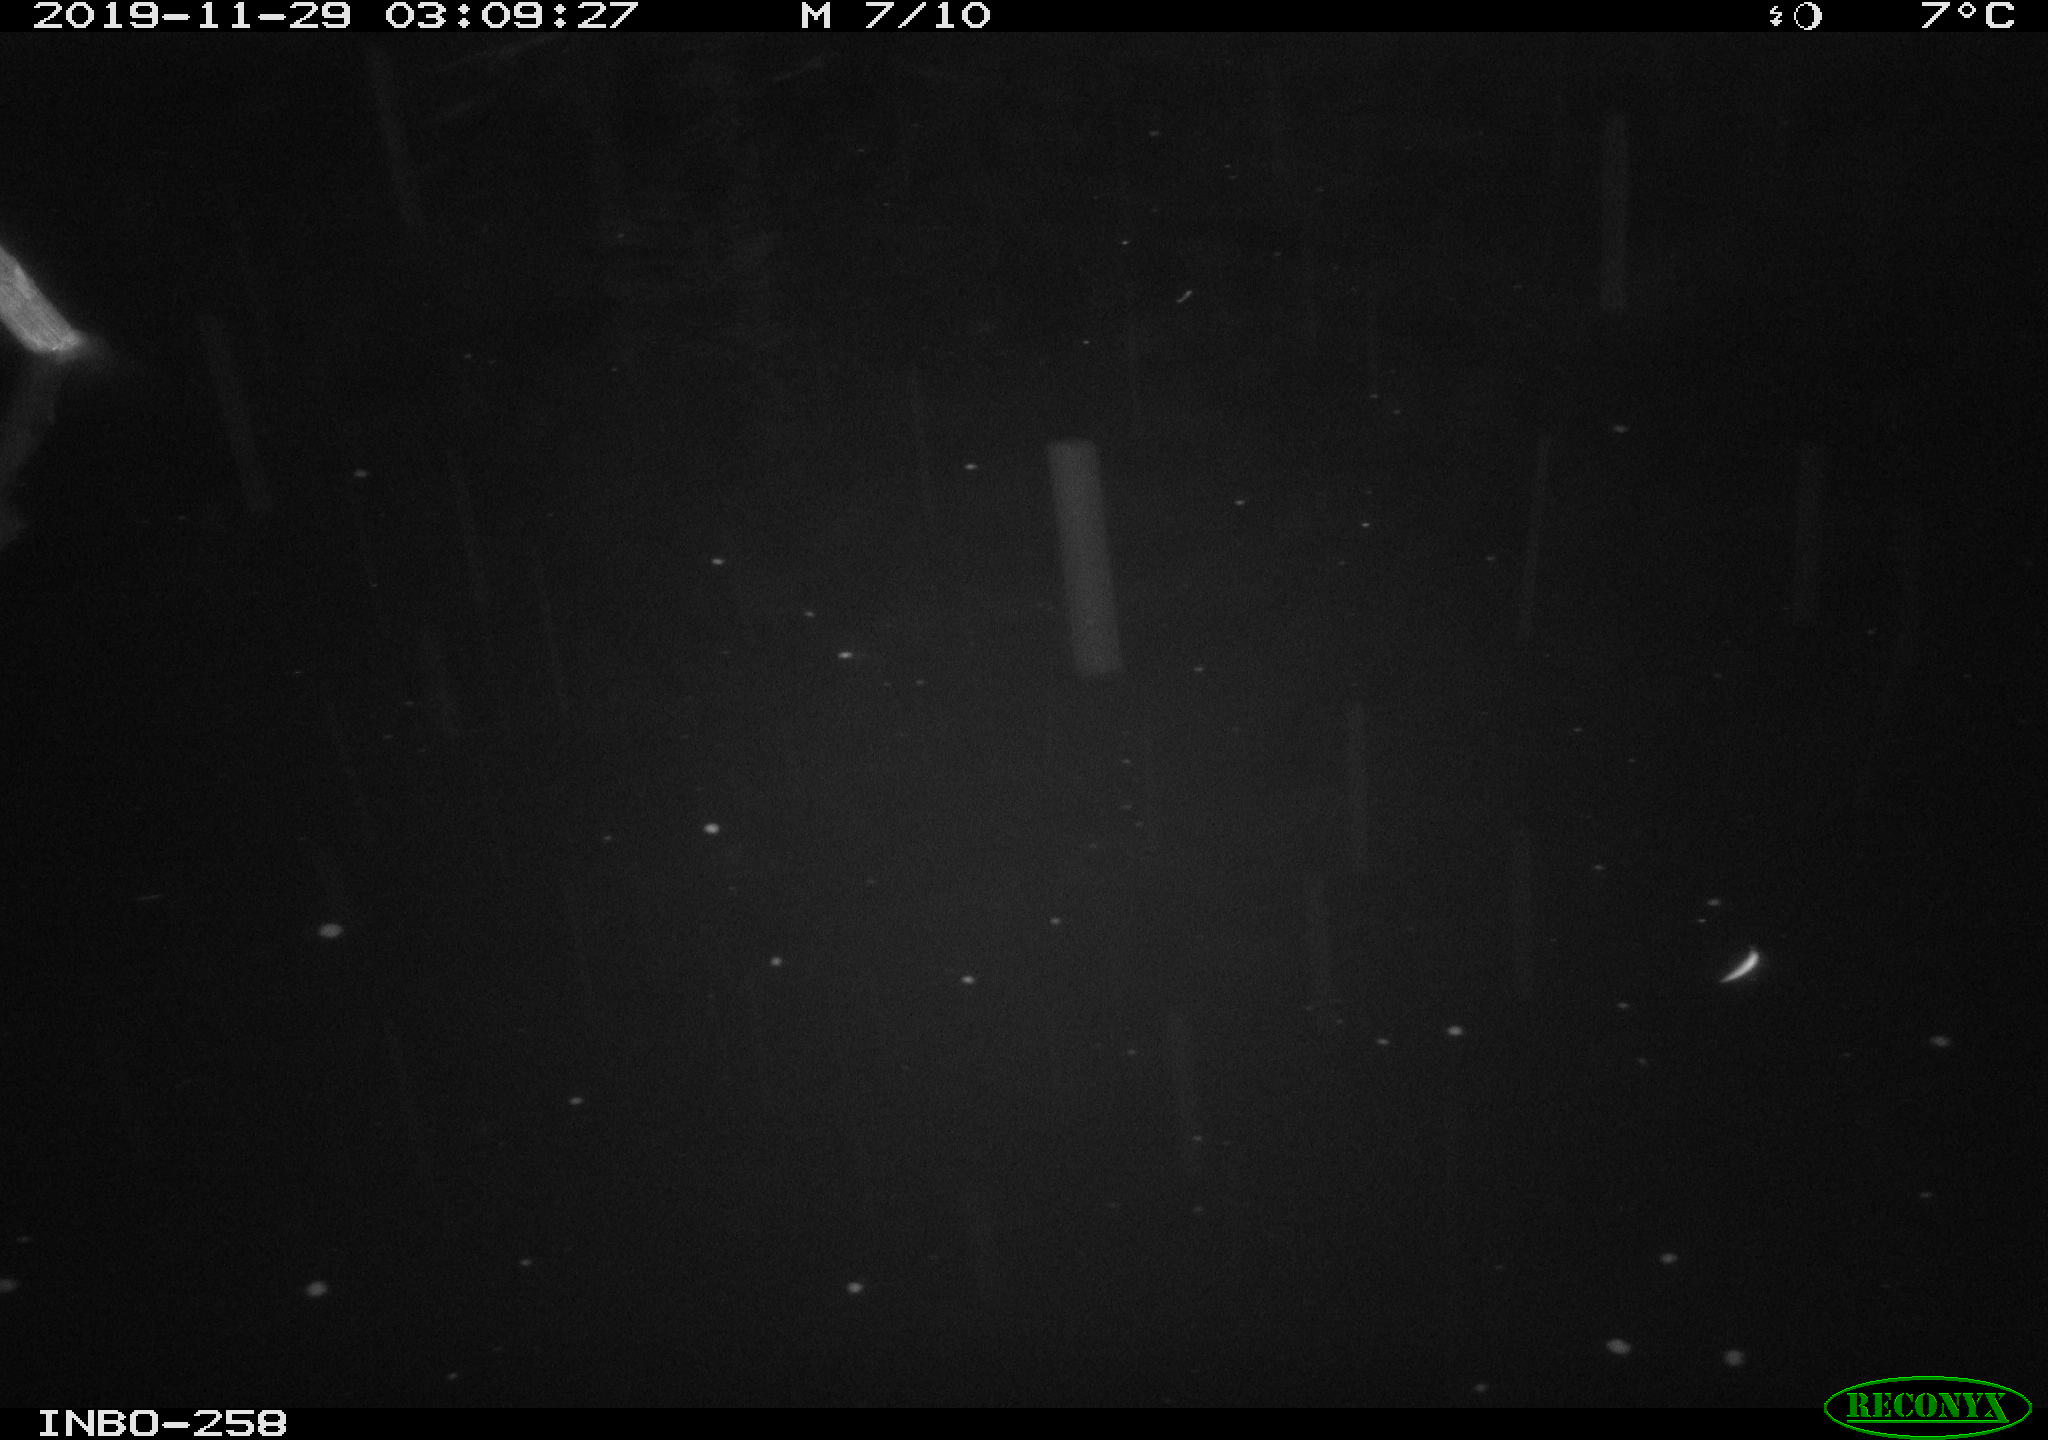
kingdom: Animalia
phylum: Chordata
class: Mammalia
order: Rodentia
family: Muridae
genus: Rattus
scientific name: Rattus norvegicus
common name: Brown rat
